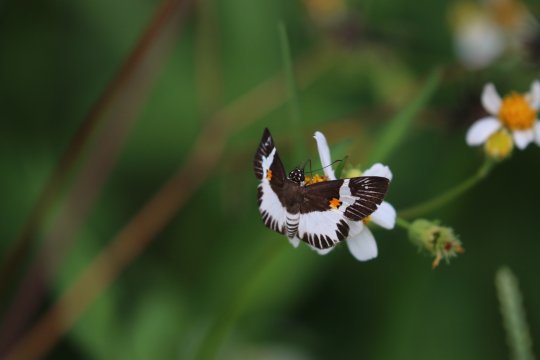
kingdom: Animalia
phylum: Arthropoda
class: Insecta
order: Lepidoptera
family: Hesperiidae
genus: Atarnes
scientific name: Atarnes sallei
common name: Orange-spotted Skipper
